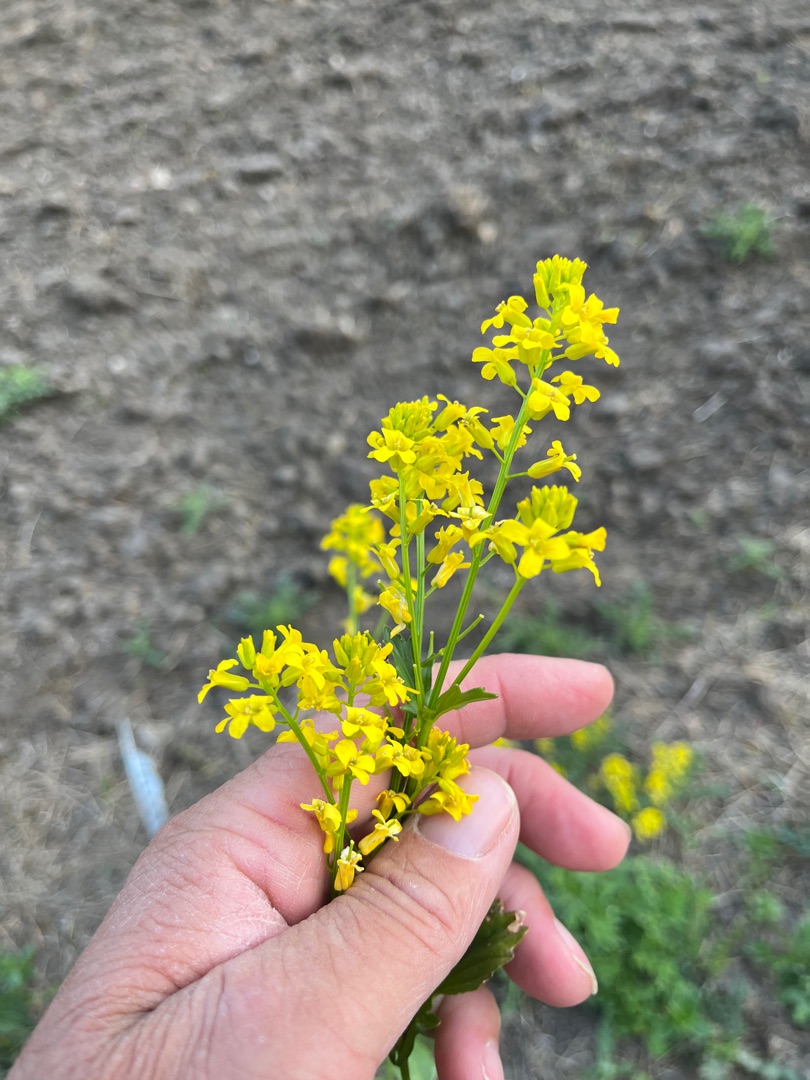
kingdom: Plantae
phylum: Tracheophyta
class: Magnoliopsida
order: Brassicales
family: Brassicaceae
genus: Barbarea
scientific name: Barbarea vulgaris
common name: Udspærret vinterkarse
